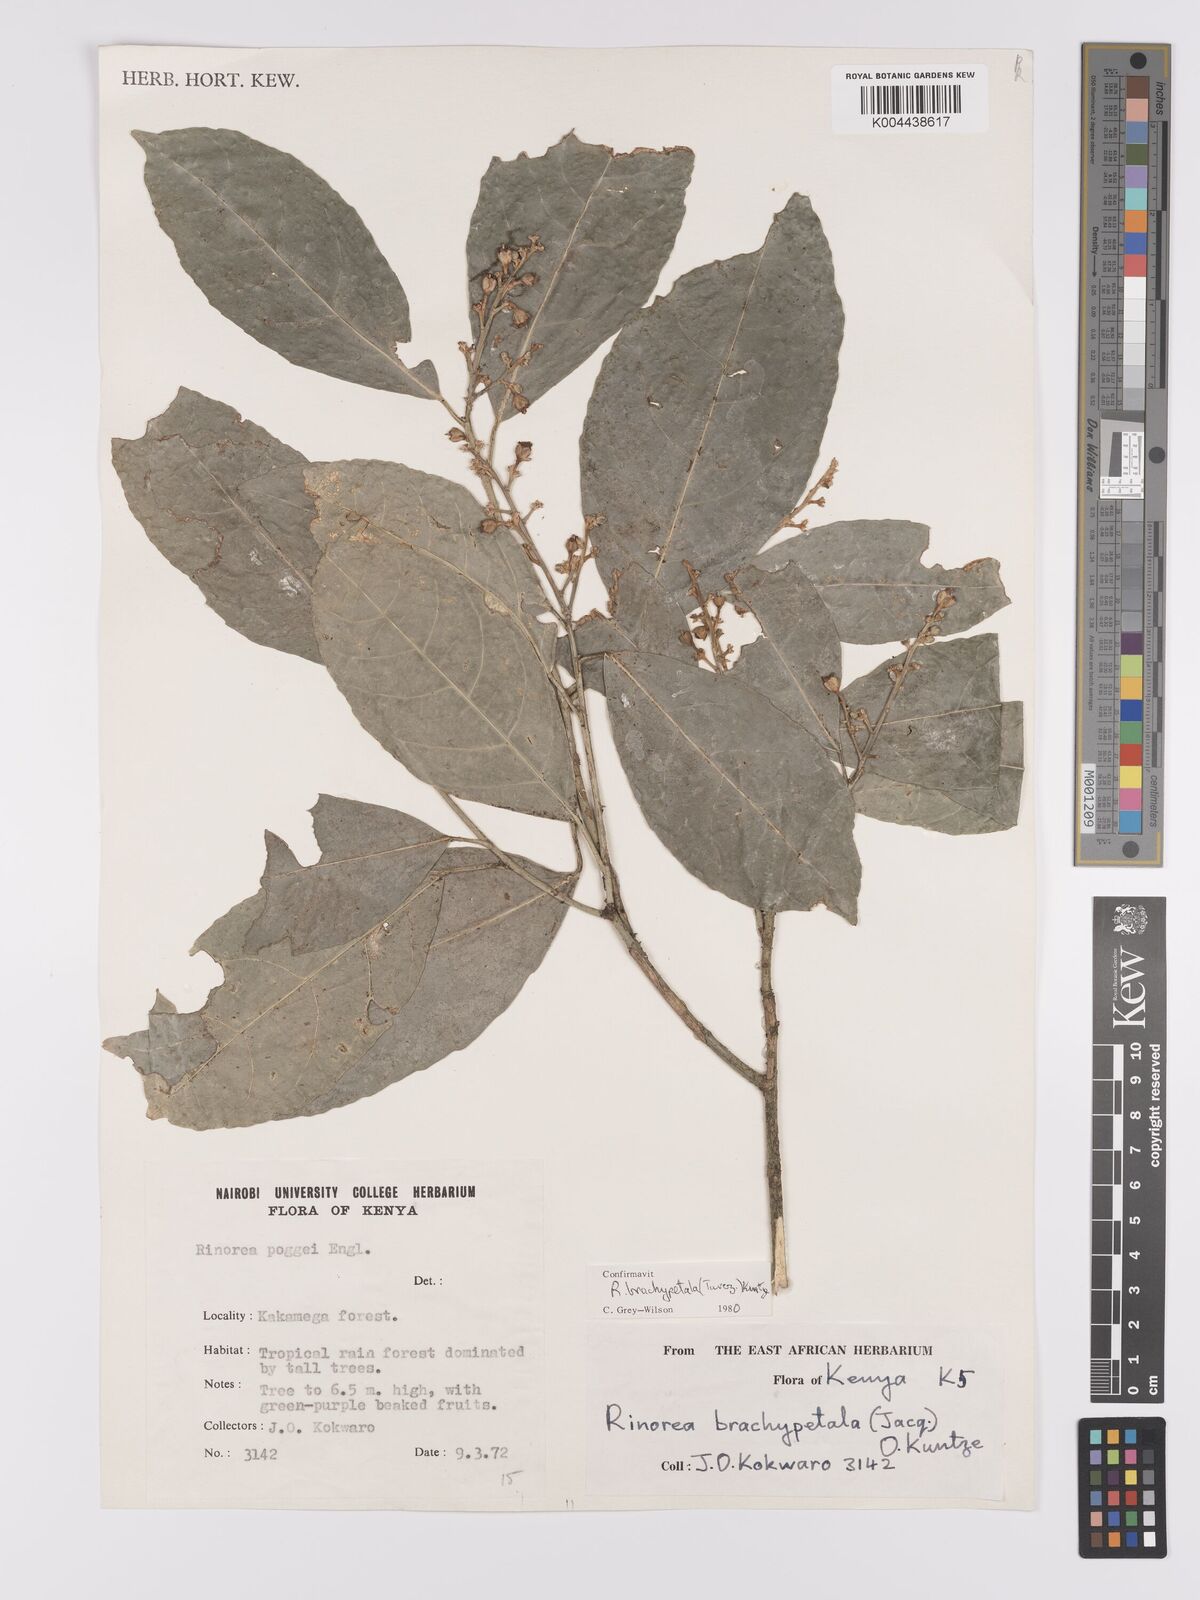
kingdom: Plantae
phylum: Tracheophyta
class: Magnoliopsida
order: Malpighiales
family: Violaceae
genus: Rinorea
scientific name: Rinorea brachypetala
